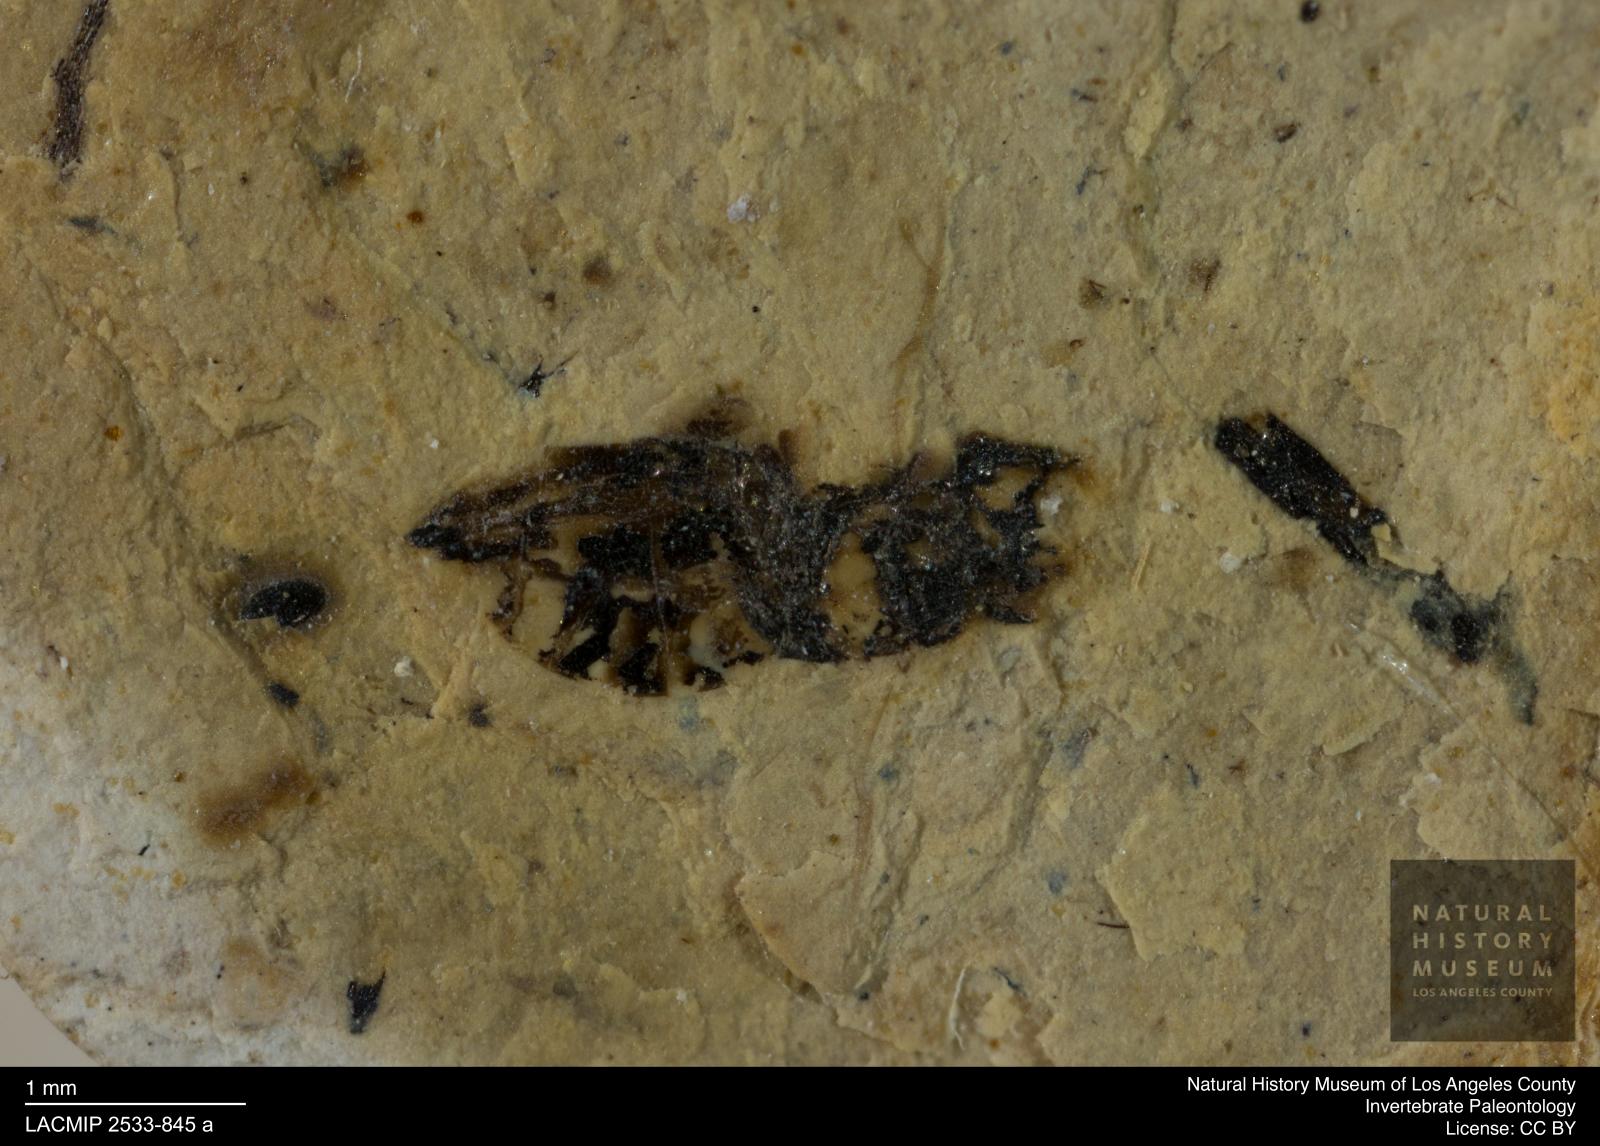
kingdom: Animalia
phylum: Arthropoda
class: Insecta
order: Hymenoptera
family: Pteromalidae
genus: Pteromalus
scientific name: Pteromalus crassicapitatus
